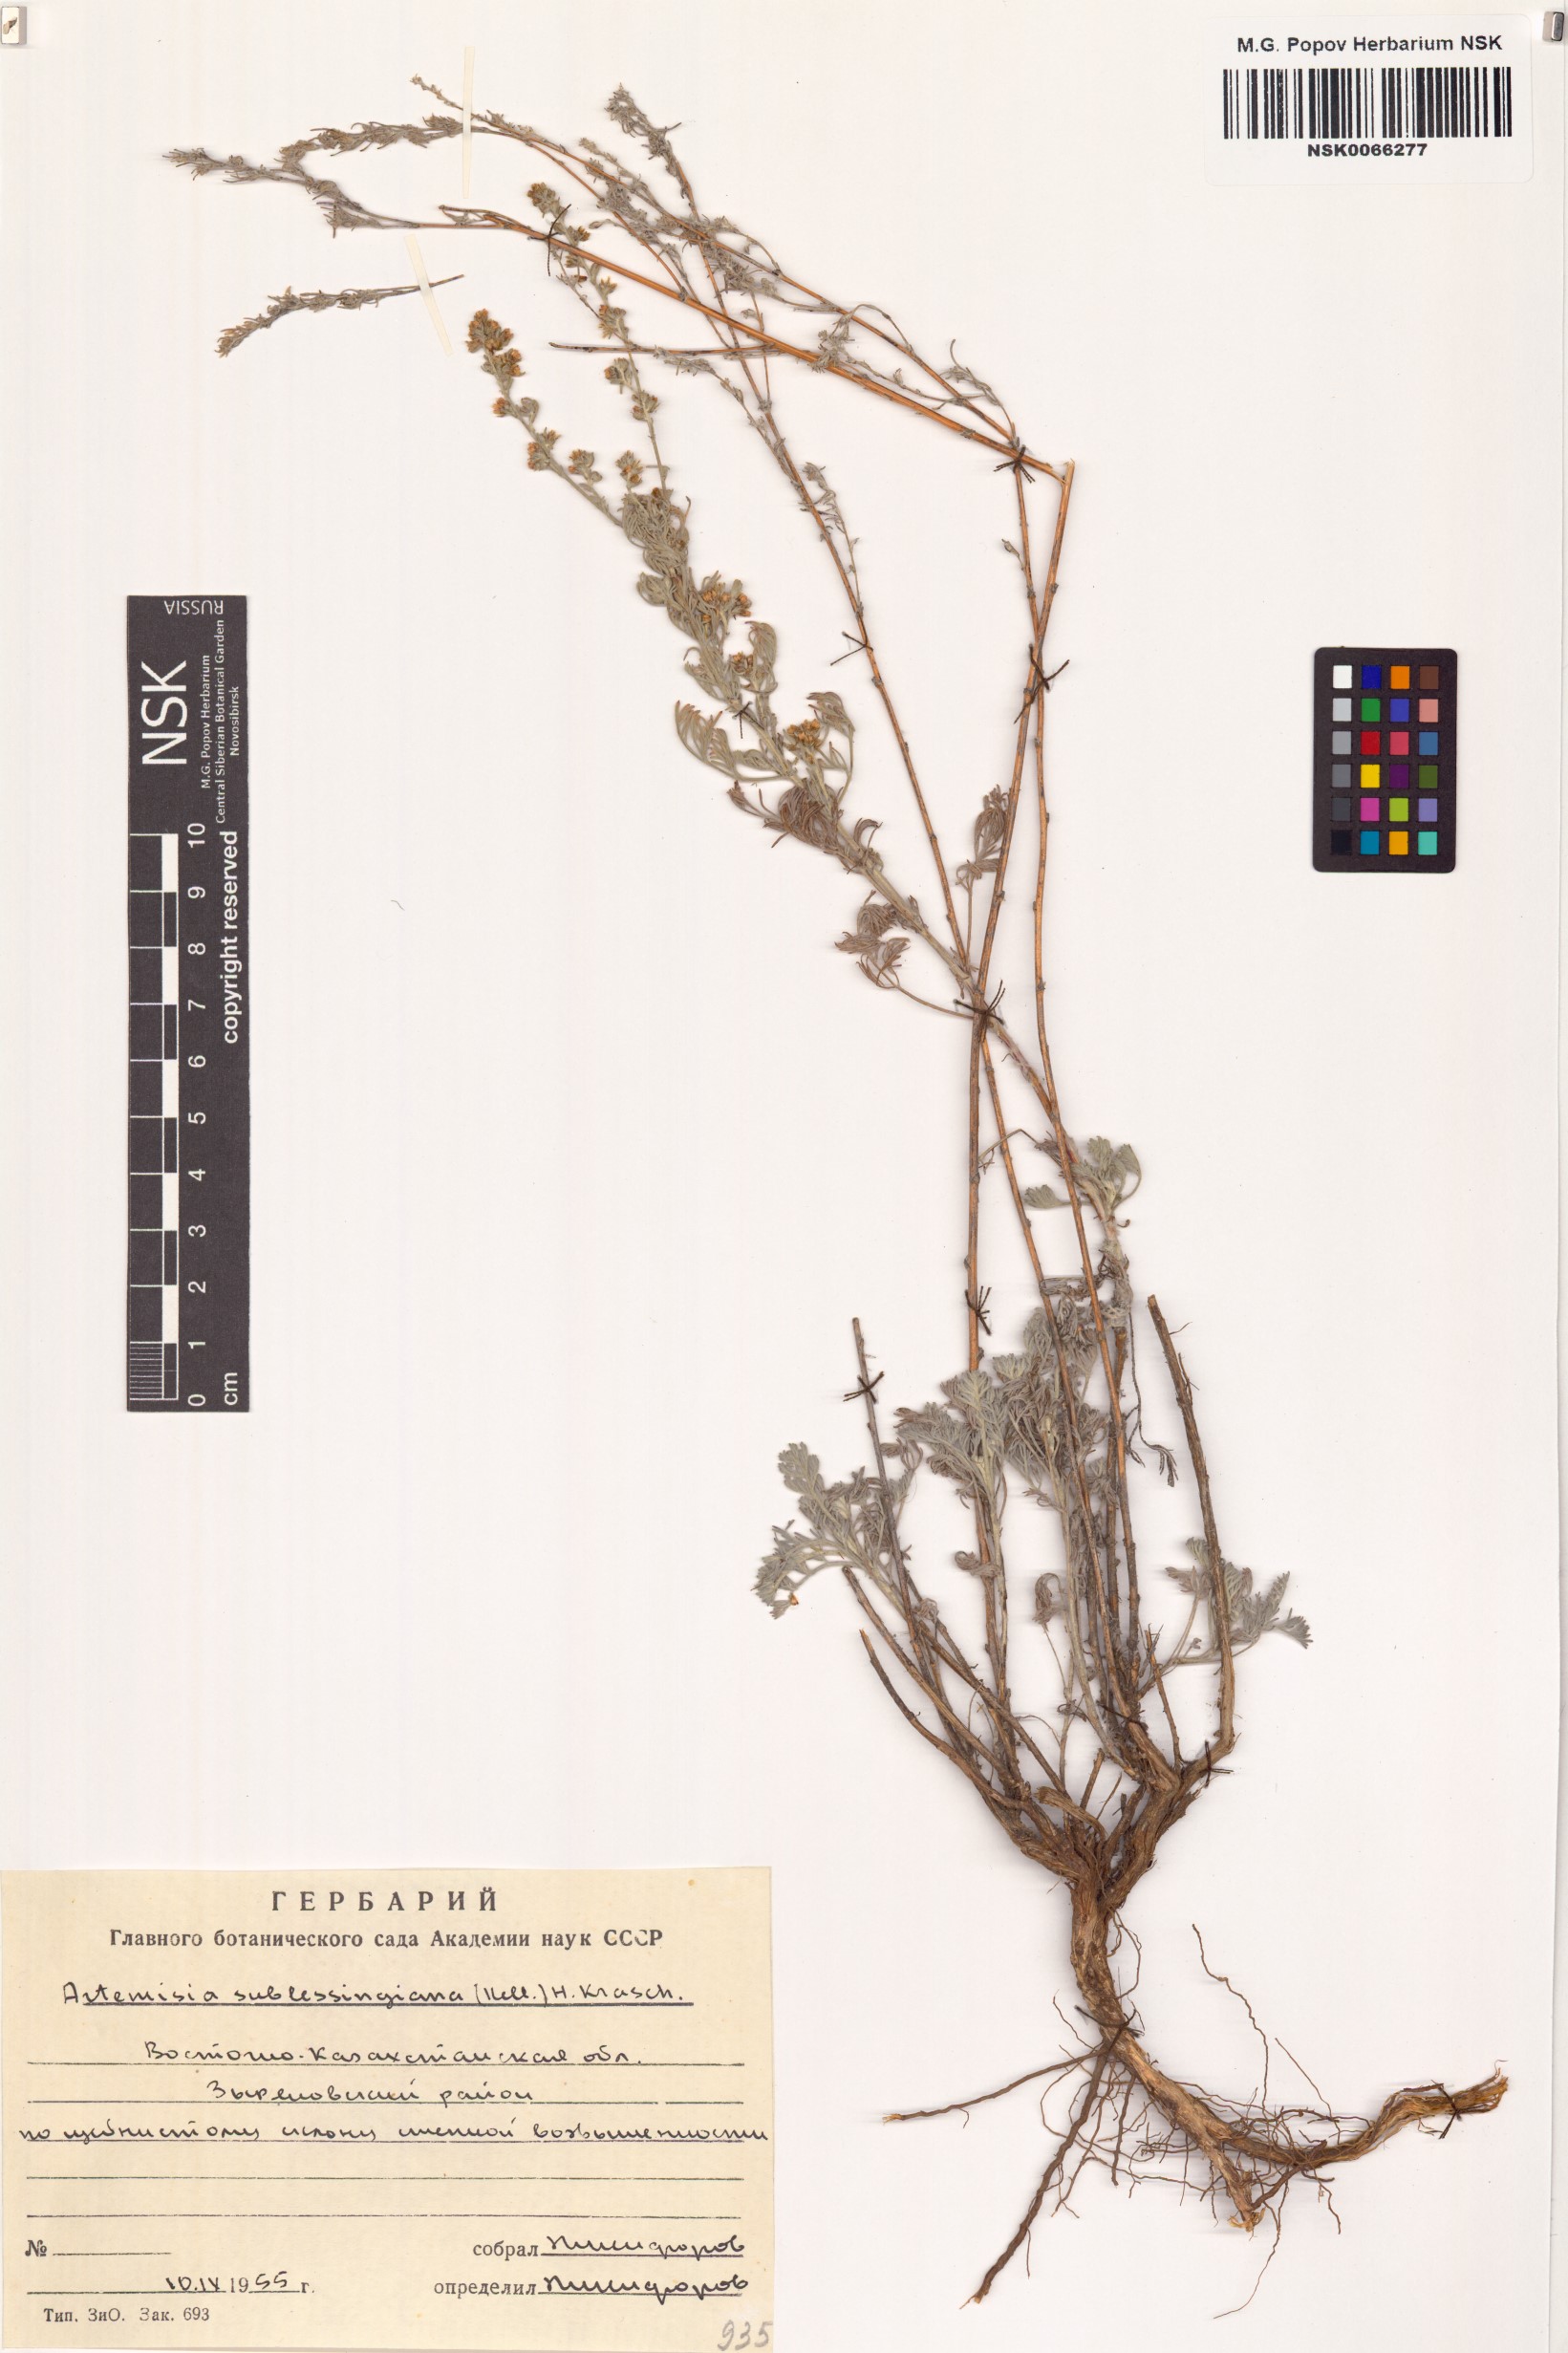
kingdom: Plantae
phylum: Tracheophyta
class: Magnoliopsida
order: Asterales
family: Asteraceae
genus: Artemisia
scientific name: Artemisia sublessingiana
